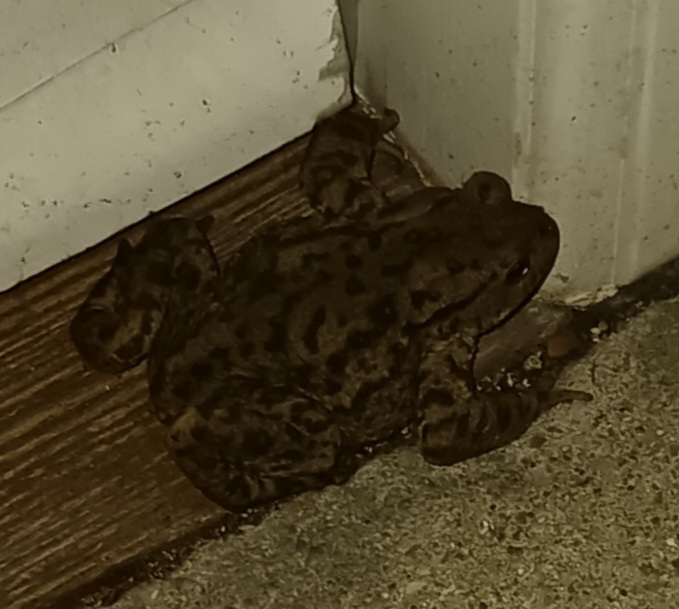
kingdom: Animalia
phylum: Chordata
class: Amphibia
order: Anura
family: Bufonidae
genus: Bufo
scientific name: Bufo bufo
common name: Skrubtudse
